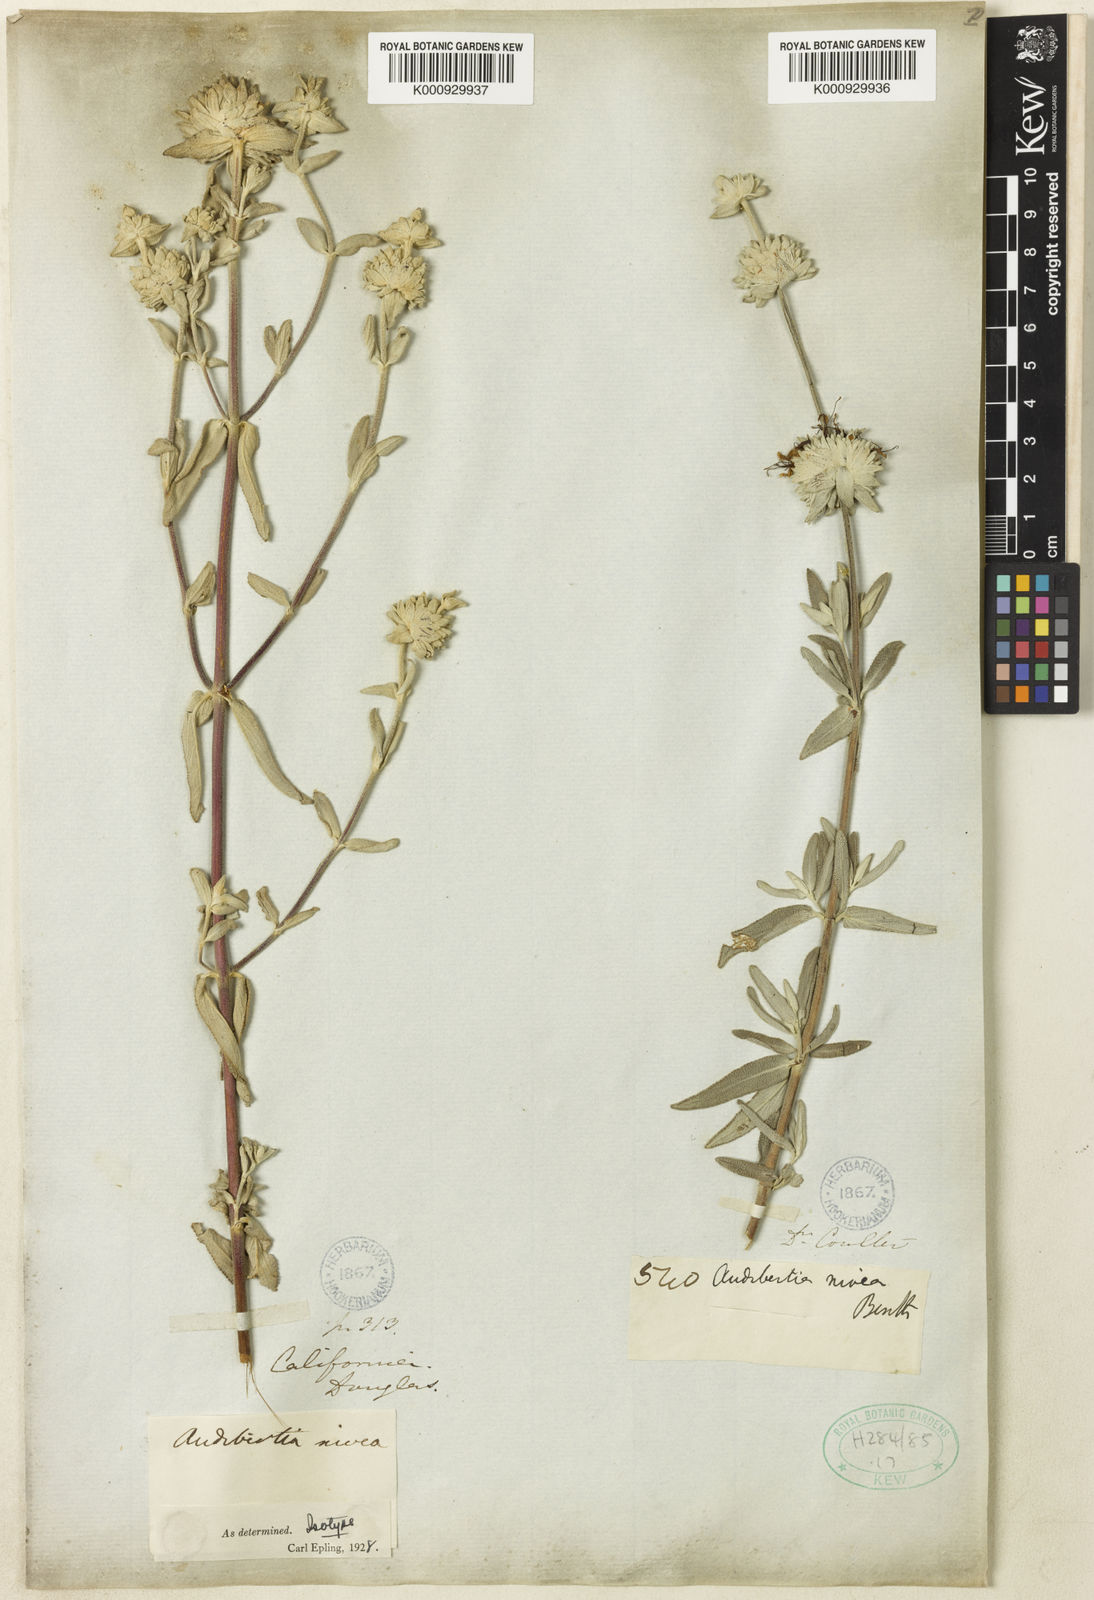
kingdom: Plantae
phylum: Tracheophyta
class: Magnoliopsida
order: Lamiales
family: Lamiaceae
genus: Salvia
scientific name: Salvia leucophylla
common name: Purple sage
